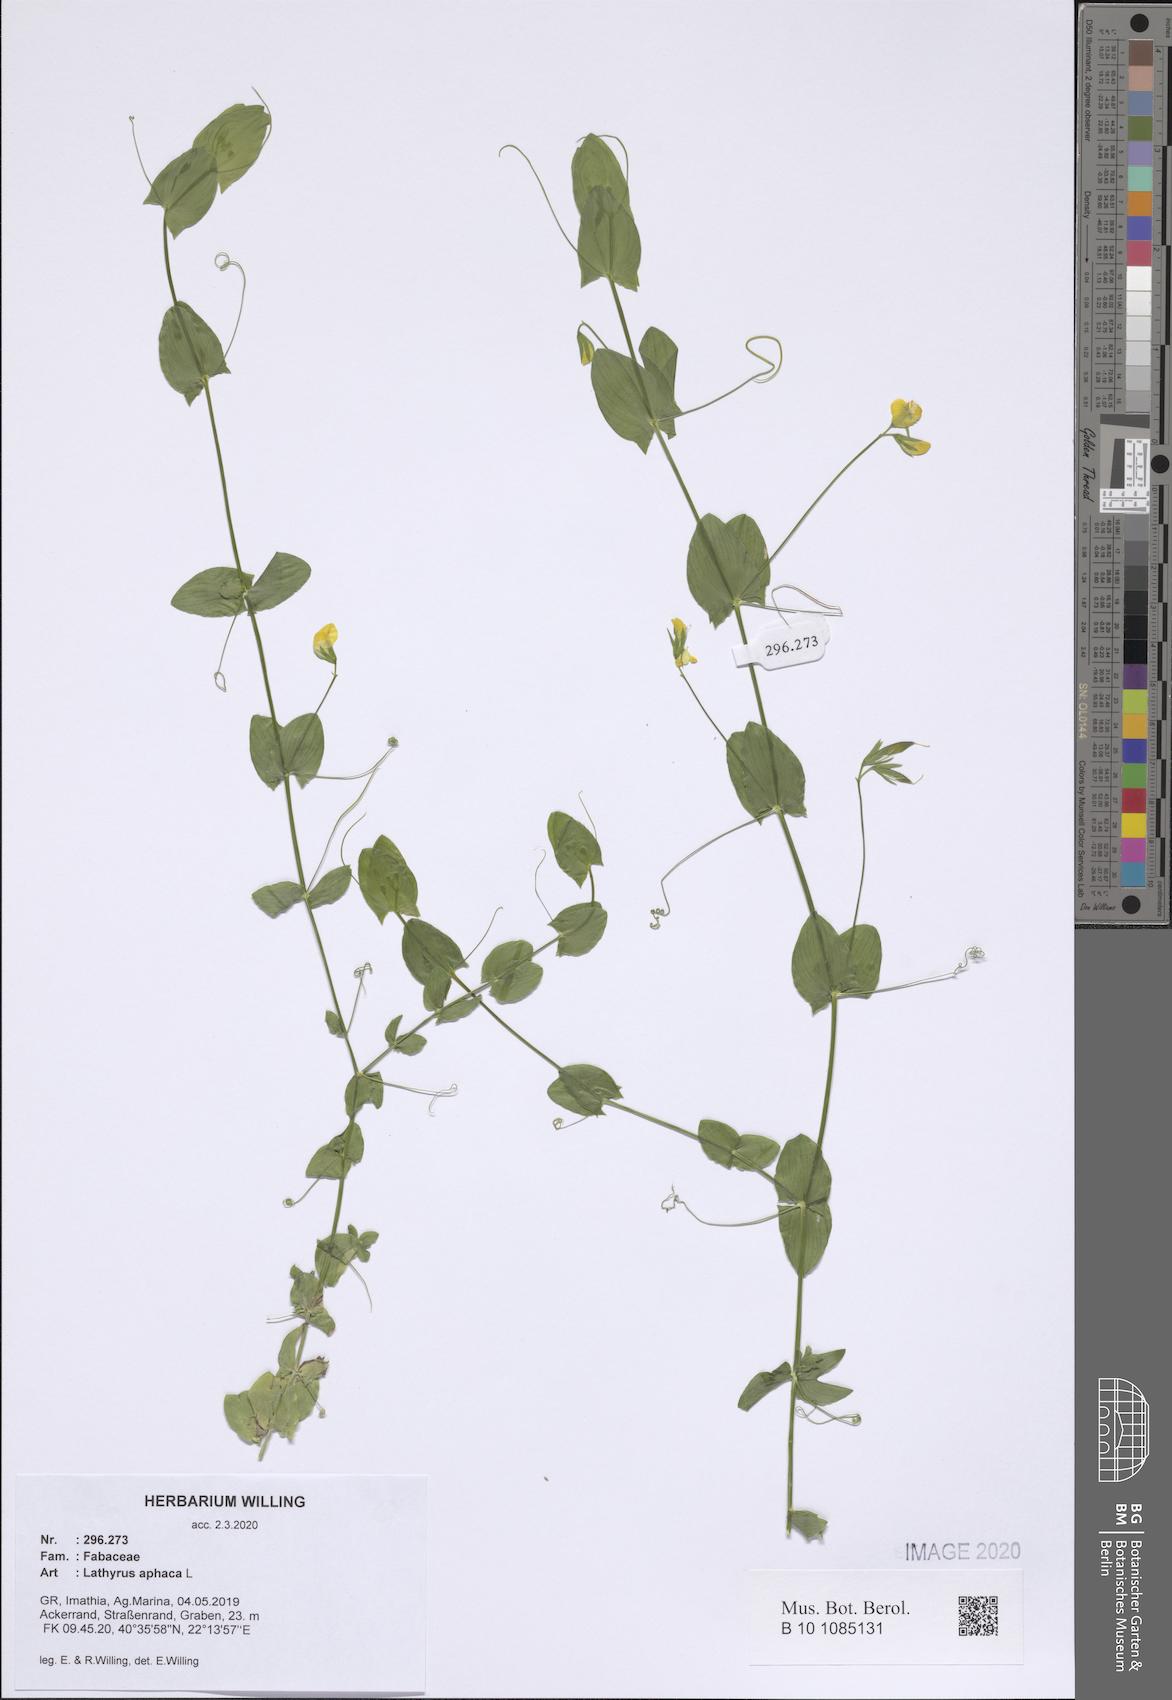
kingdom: Plantae
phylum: Tracheophyta
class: Magnoliopsida
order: Fabales
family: Fabaceae
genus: Lathyrus
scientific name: Lathyrus aphaca
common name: Yellow vetchling
